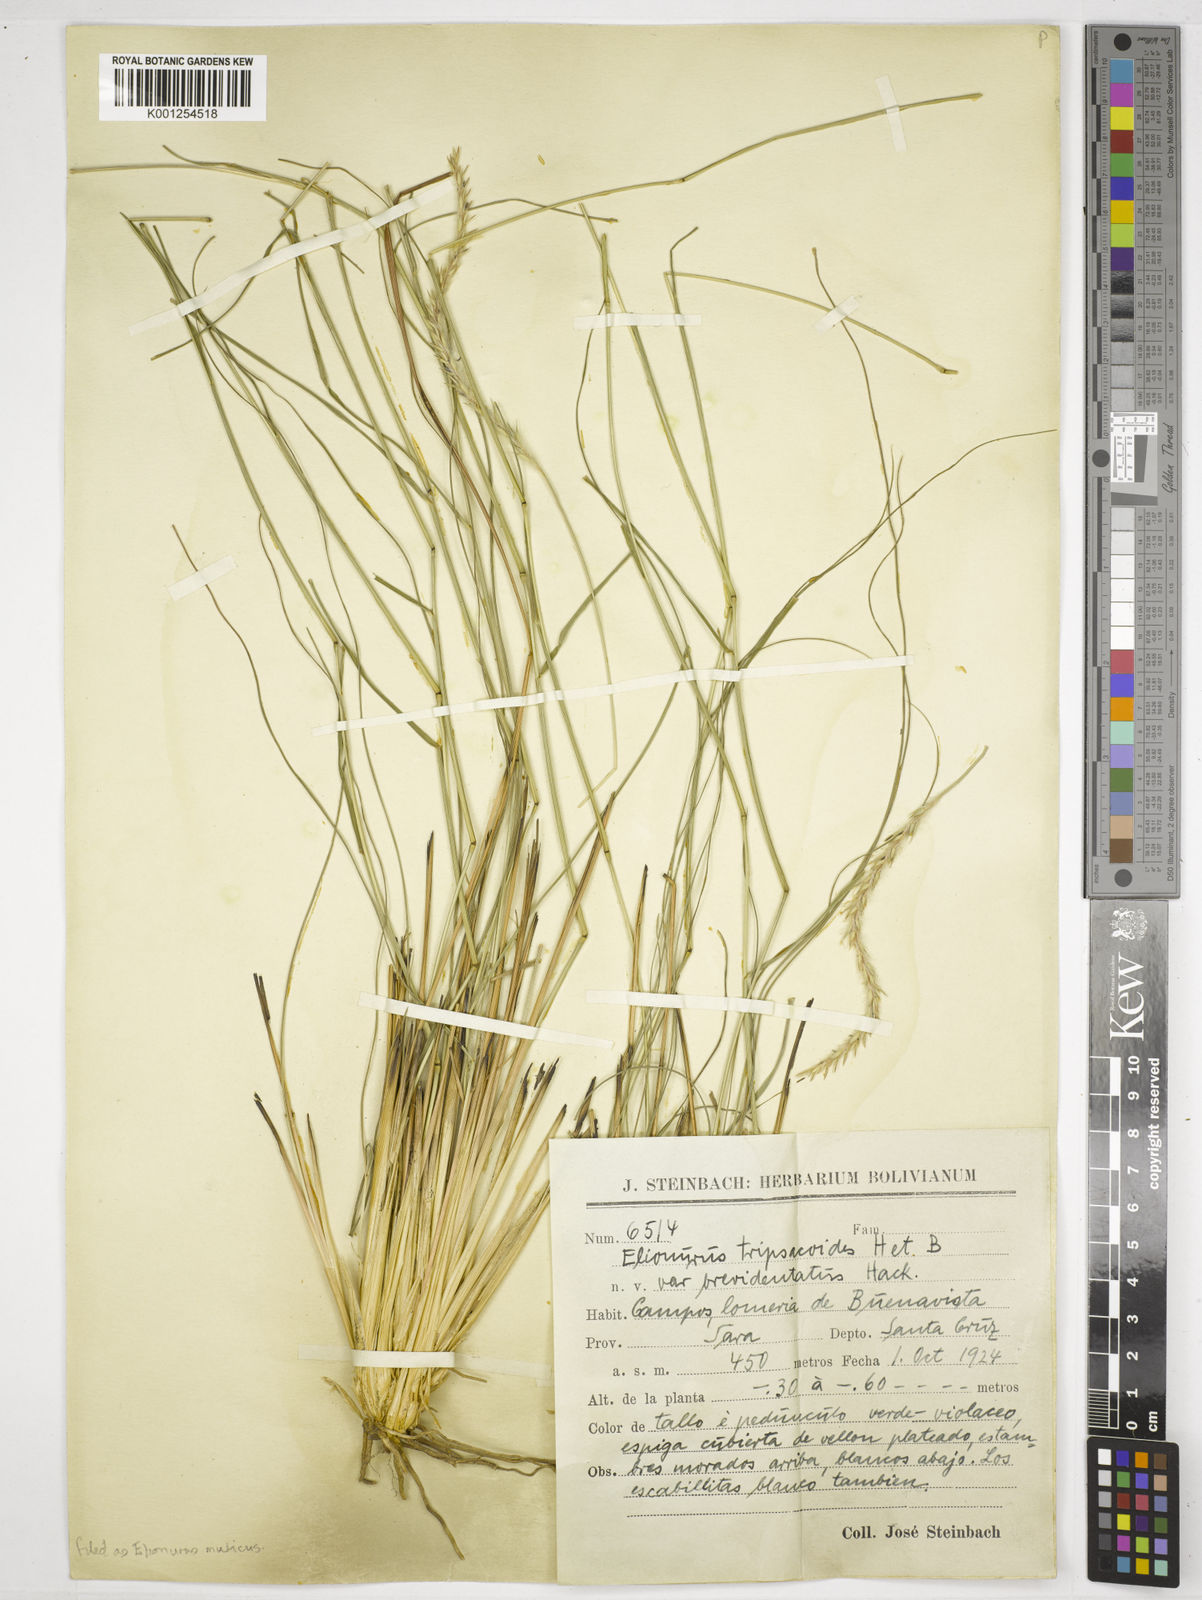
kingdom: Plantae
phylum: Tracheophyta
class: Liliopsida
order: Poales
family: Poaceae
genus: Elionurus
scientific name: Elionurus muticus
